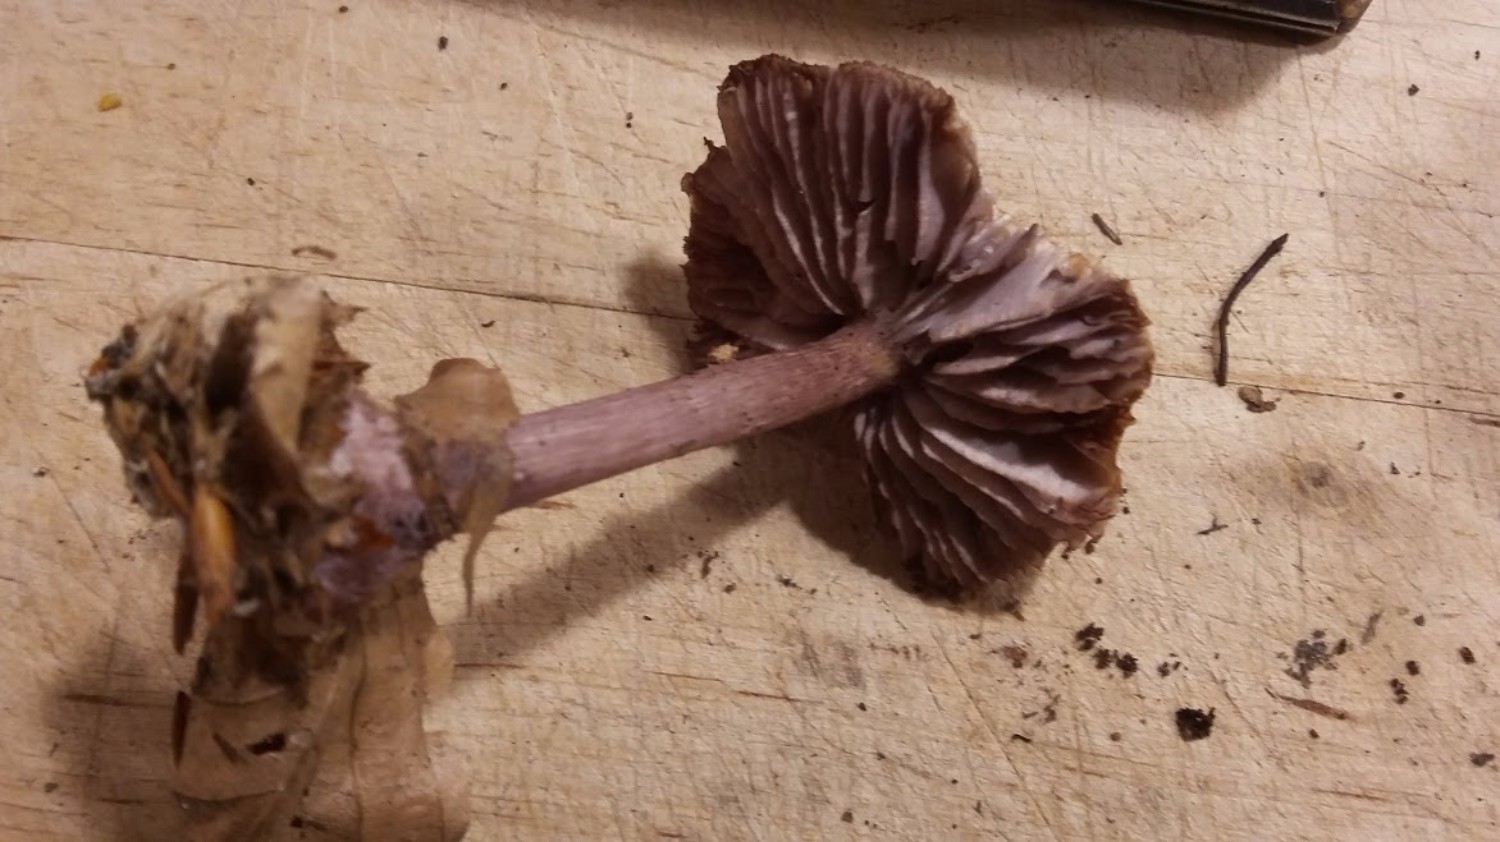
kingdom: Fungi
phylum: Basidiomycota
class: Agaricomycetes
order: Agaricales
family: Mycenaceae
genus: Mycena
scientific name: Mycena pelianthina
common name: mørkbladet huesvamp
